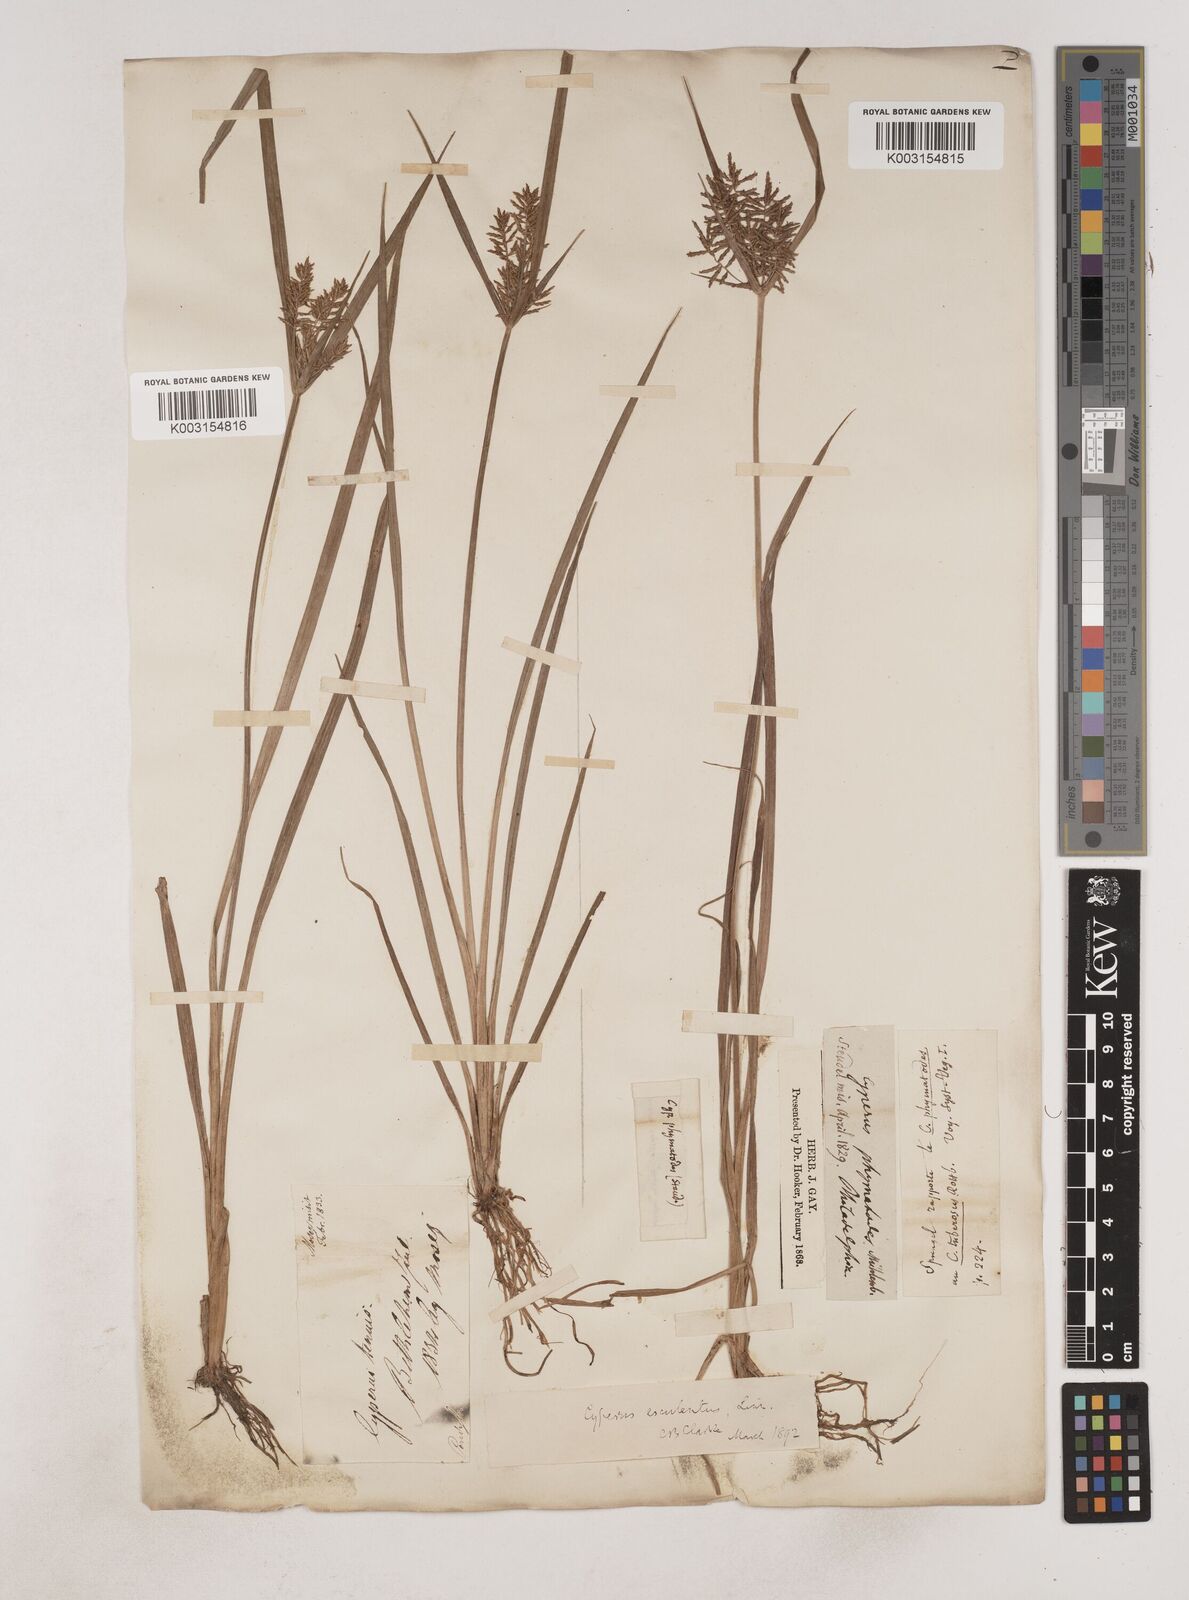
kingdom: Plantae
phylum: Tracheophyta
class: Liliopsida
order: Poales
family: Cyperaceae
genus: Cyperus
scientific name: Cyperus esculentus
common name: Yellow nutsedge
